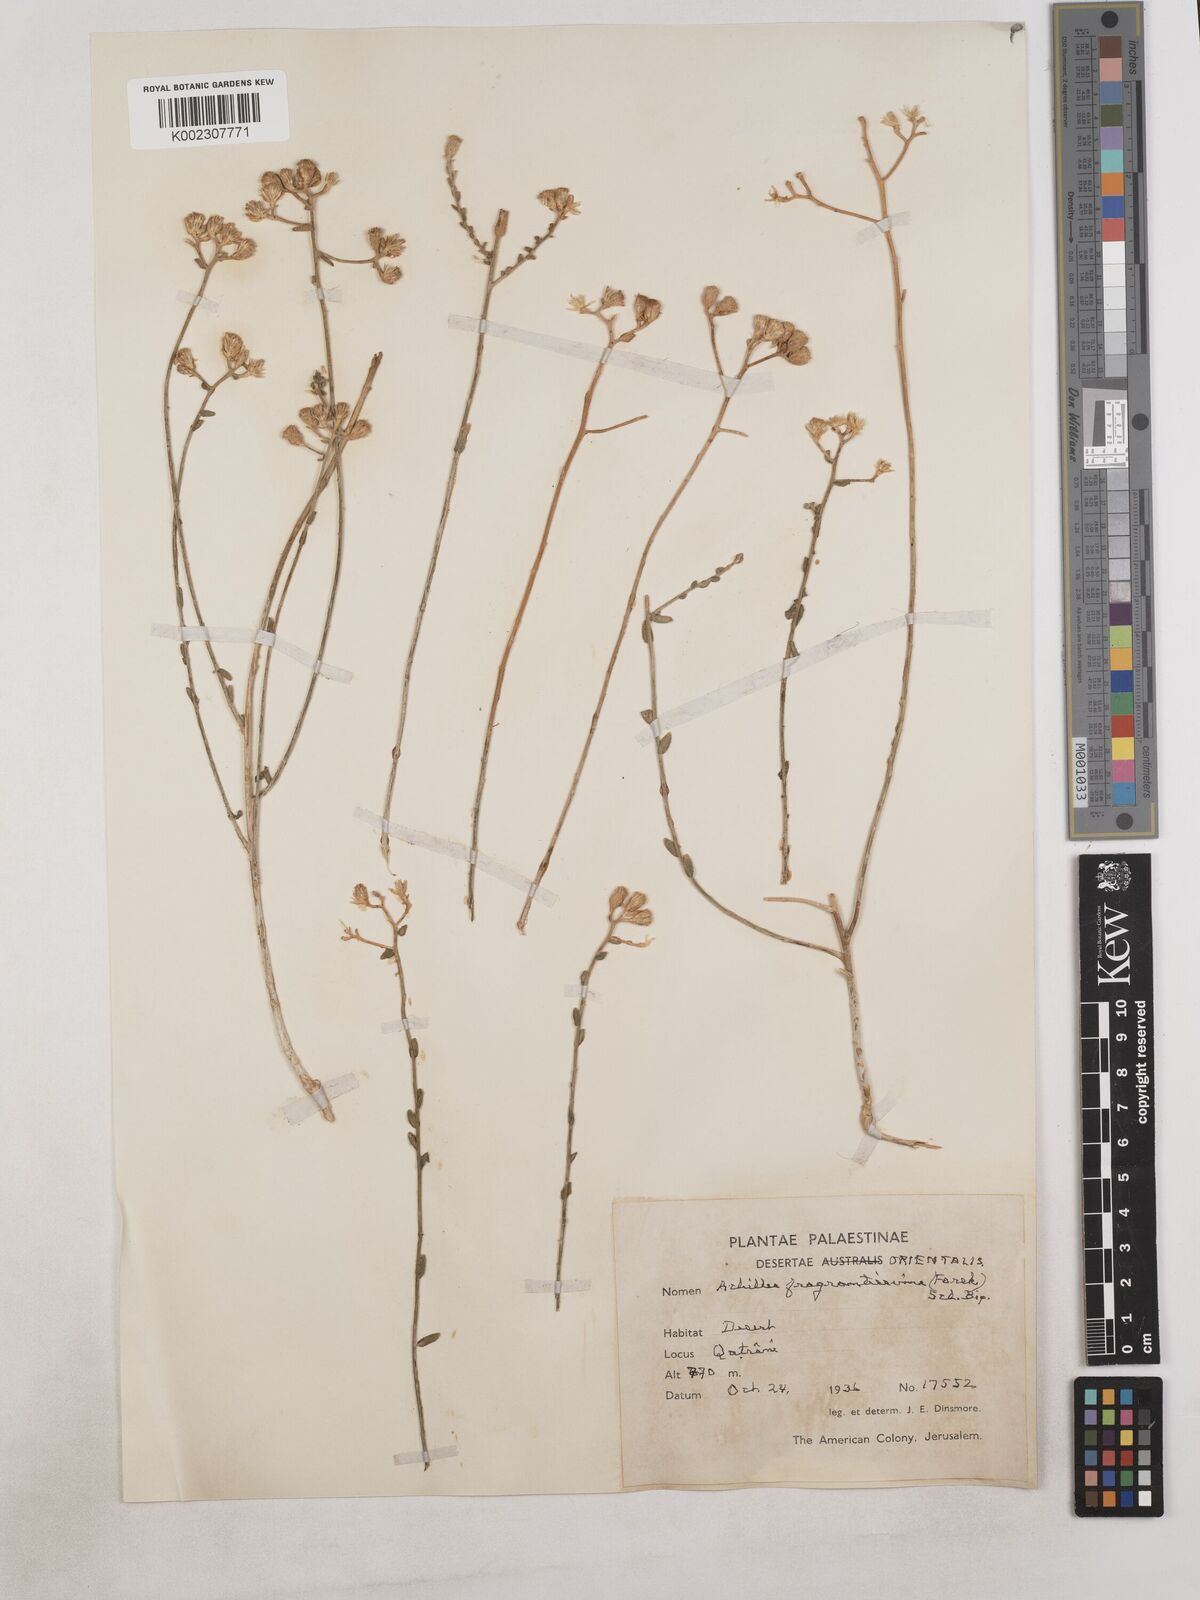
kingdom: Plantae
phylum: Tracheophyta
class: Magnoliopsida
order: Asterales
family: Asteraceae
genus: Achillea
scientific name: Achillea fragrantissima
